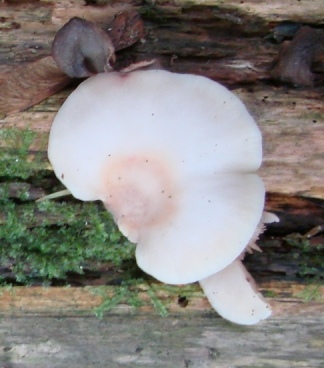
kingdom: Fungi
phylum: Basidiomycota
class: Agaricomycetes
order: Agaricales
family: Crepidotaceae
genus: Crepidotus
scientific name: Crepidotus stenocystis
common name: nåletræs-muslingesvamp
